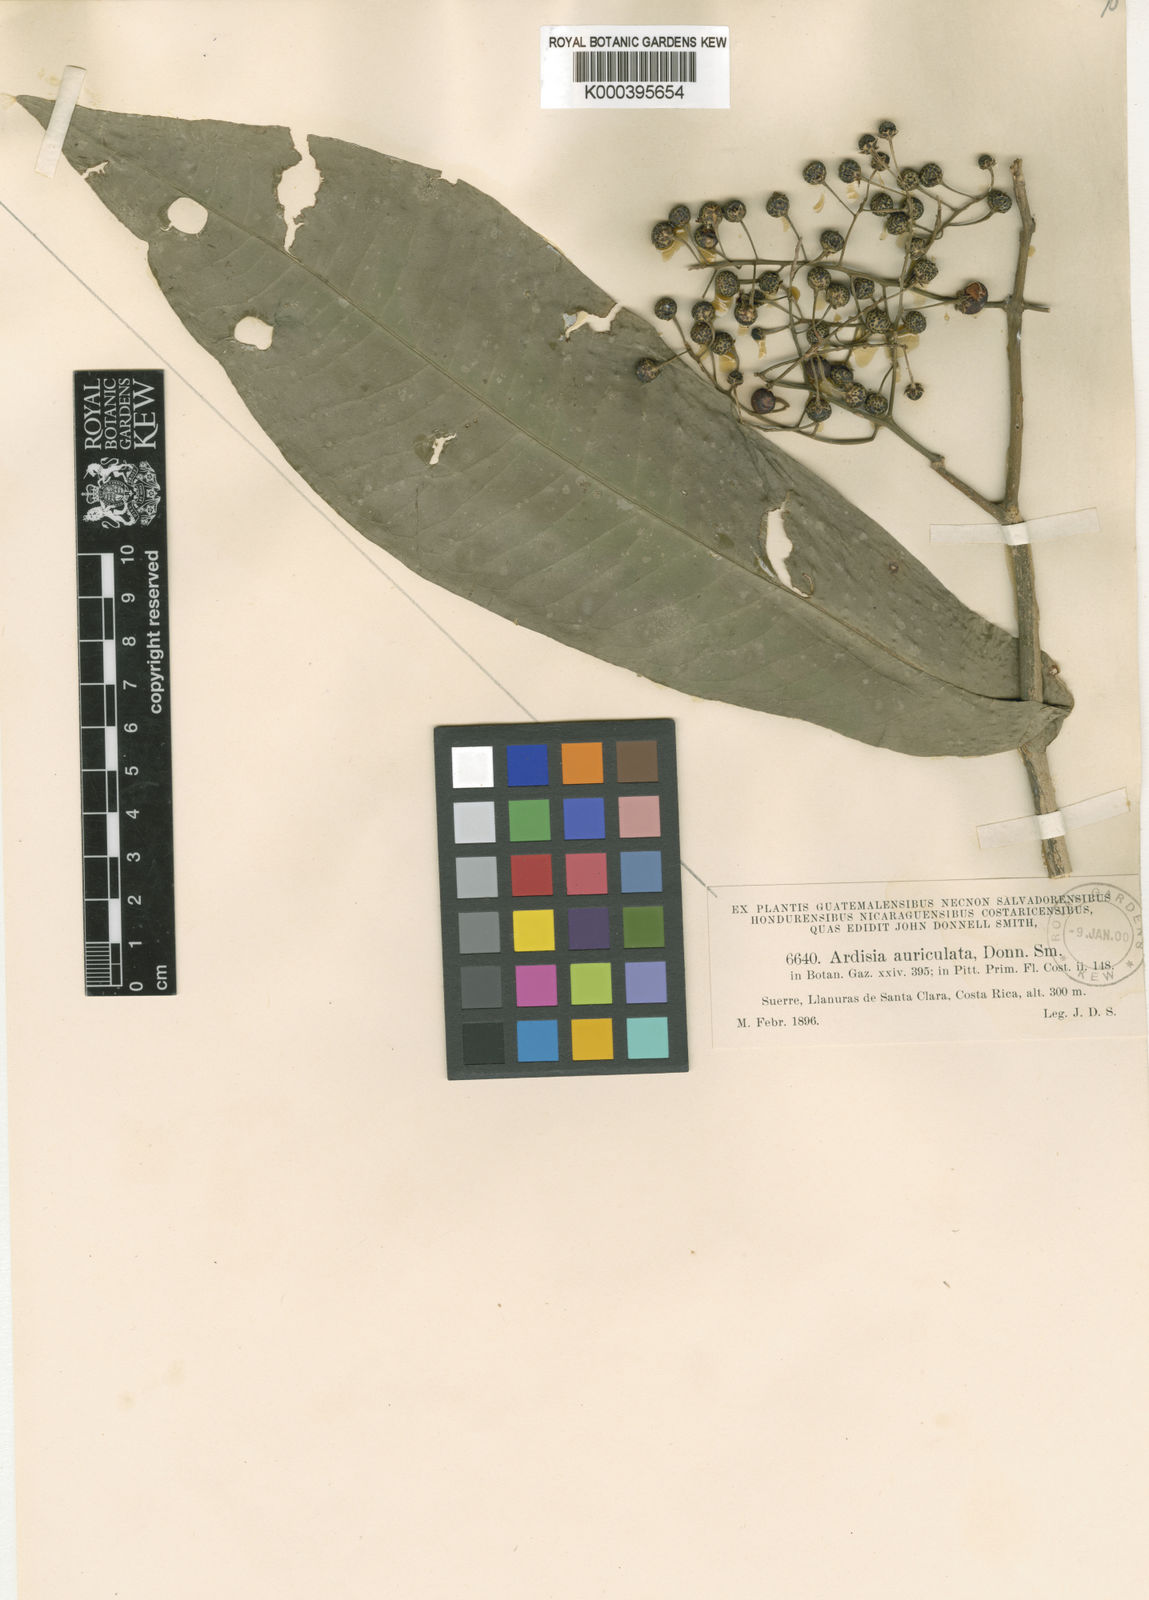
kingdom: Plantae
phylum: Tracheophyta
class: Magnoliopsida
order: Ericales
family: Primulaceae
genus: Ardisia
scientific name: Ardisia auriculata
